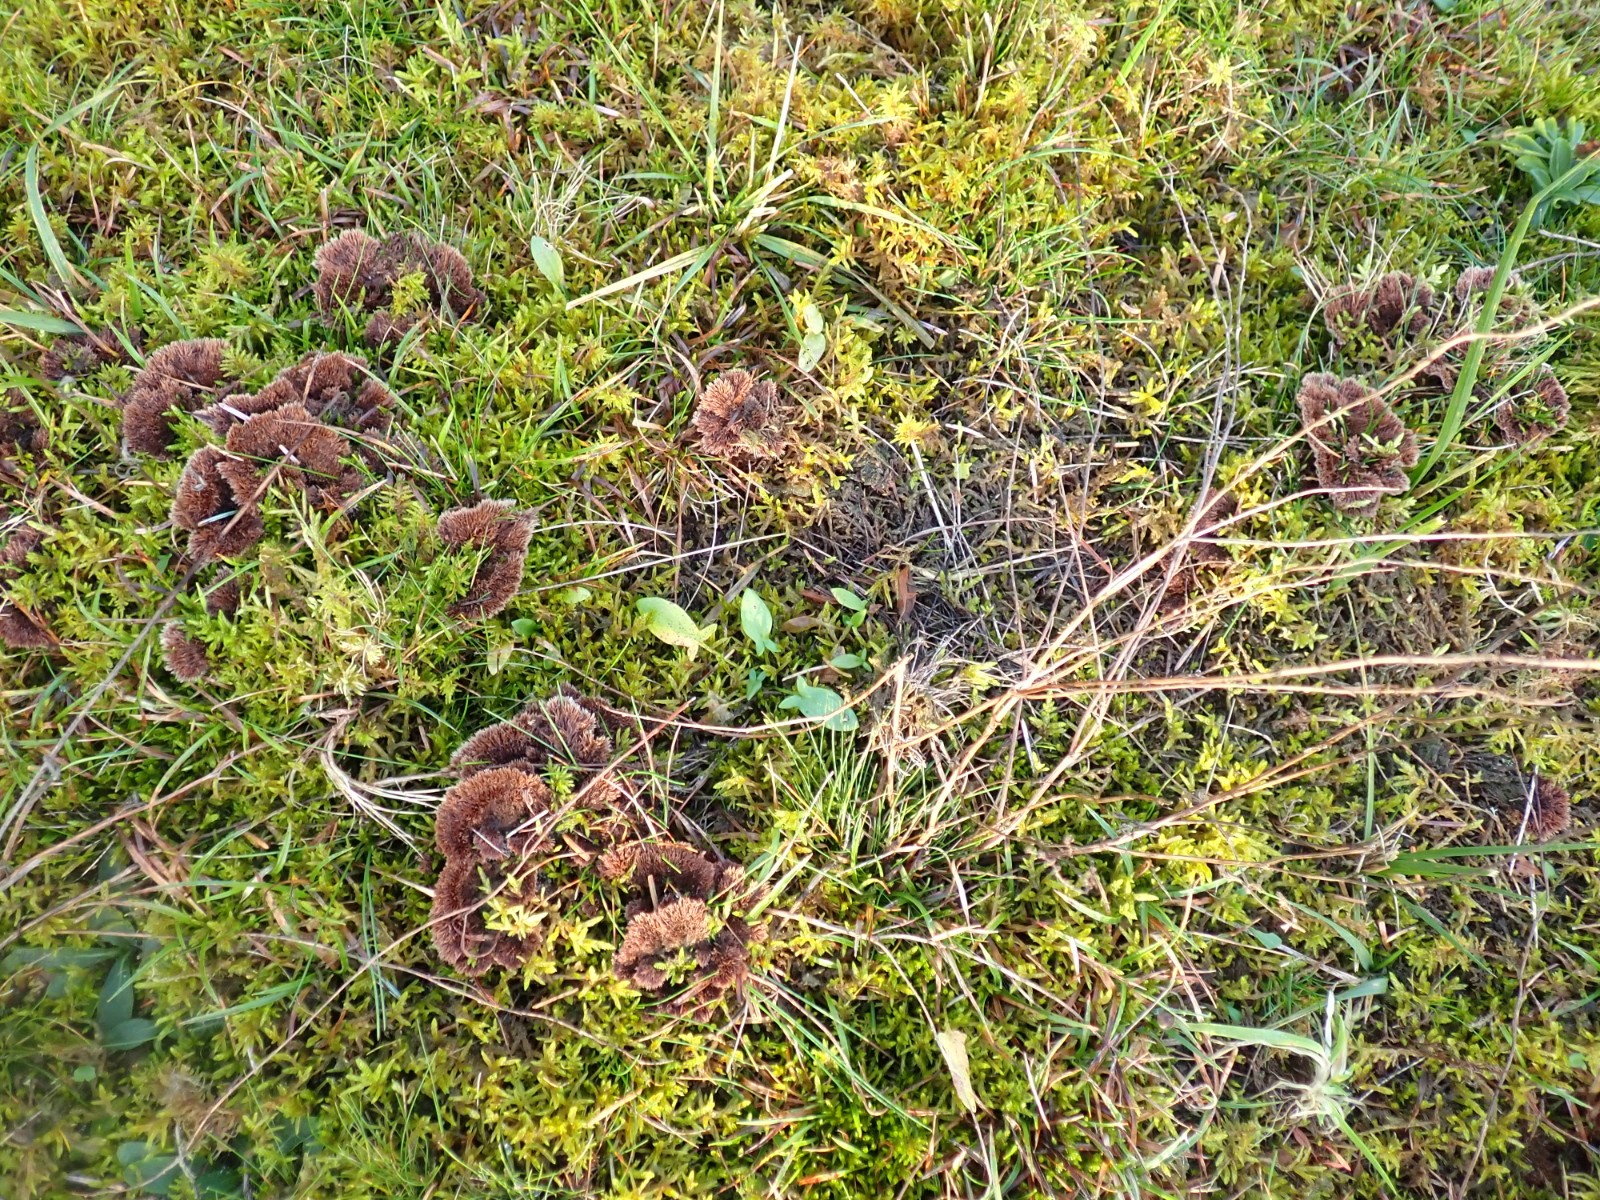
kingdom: Fungi
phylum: Basidiomycota
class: Agaricomycetes
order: Thelephorales
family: Thelephoraceae
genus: Thelephora
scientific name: Thelephora terrestris
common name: fliget frynsesvamp
